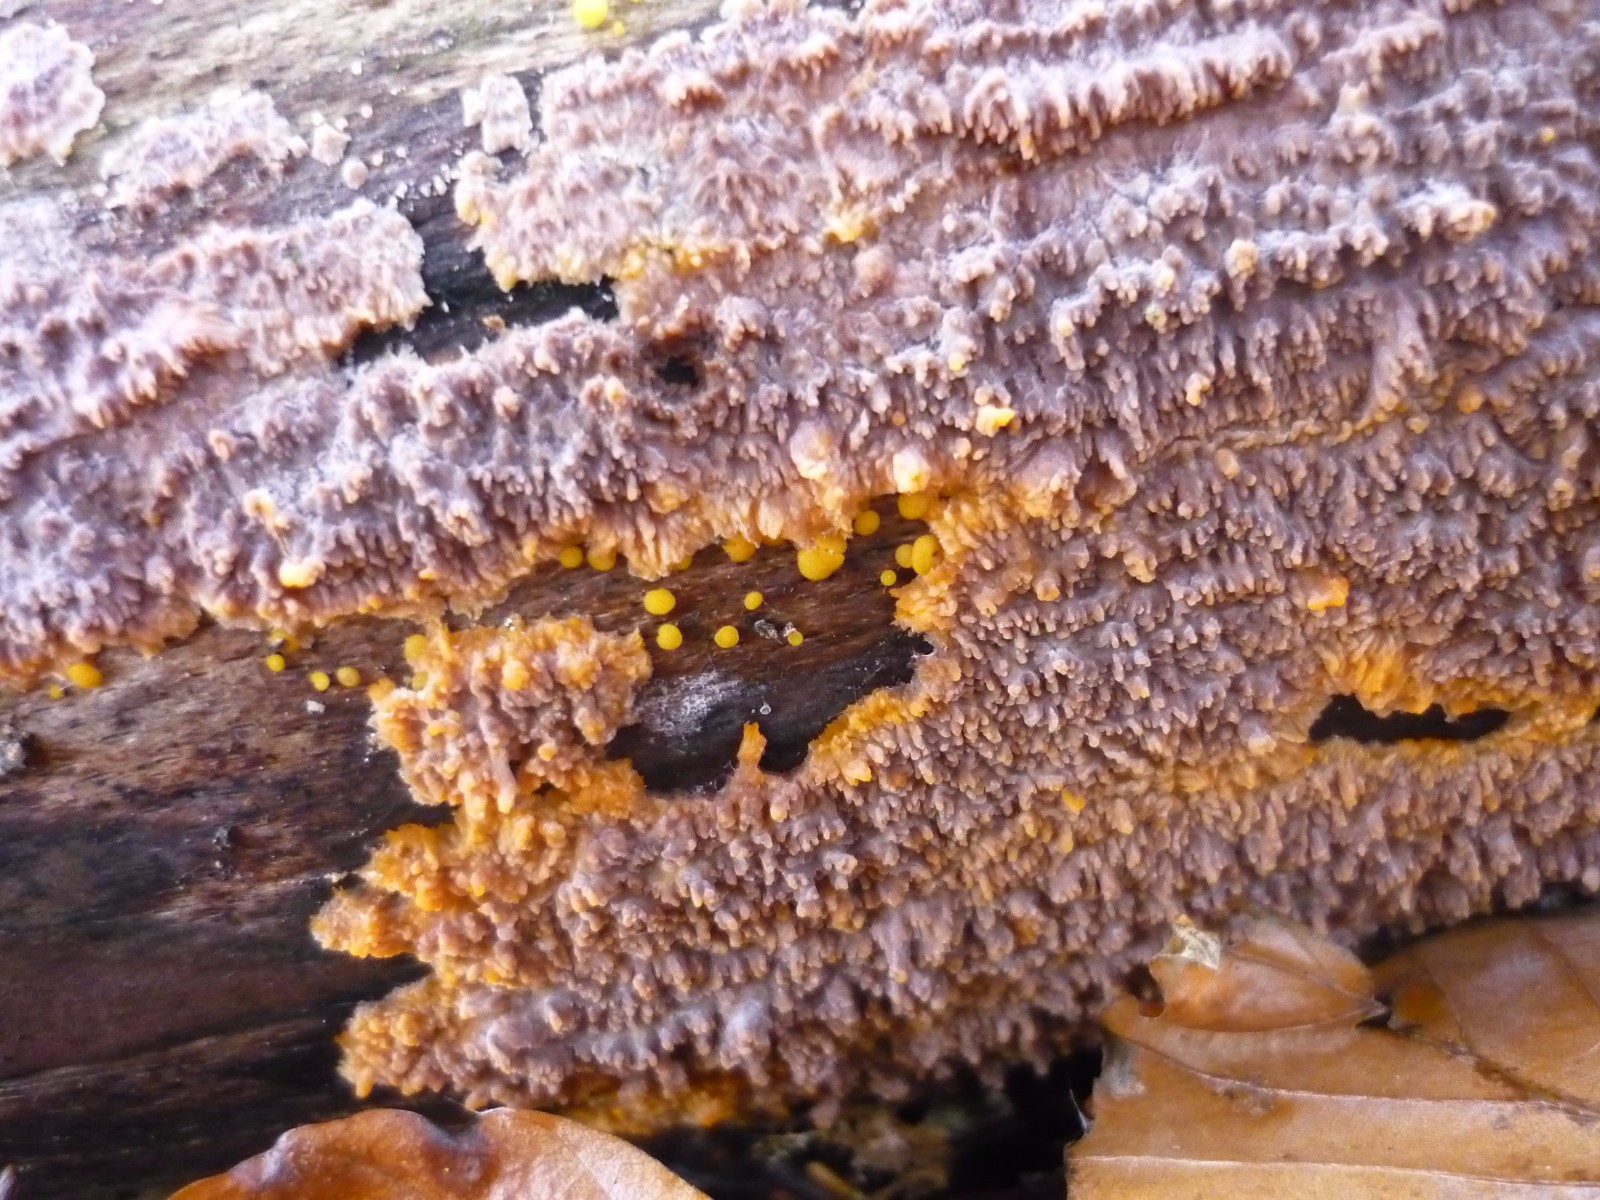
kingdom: Fungi
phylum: Basidiomycota
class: Agaricomycetes
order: Polyporales
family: Meruliaceae
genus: Phlebia
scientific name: Phlebia radiata
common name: stråle-åresvamp
